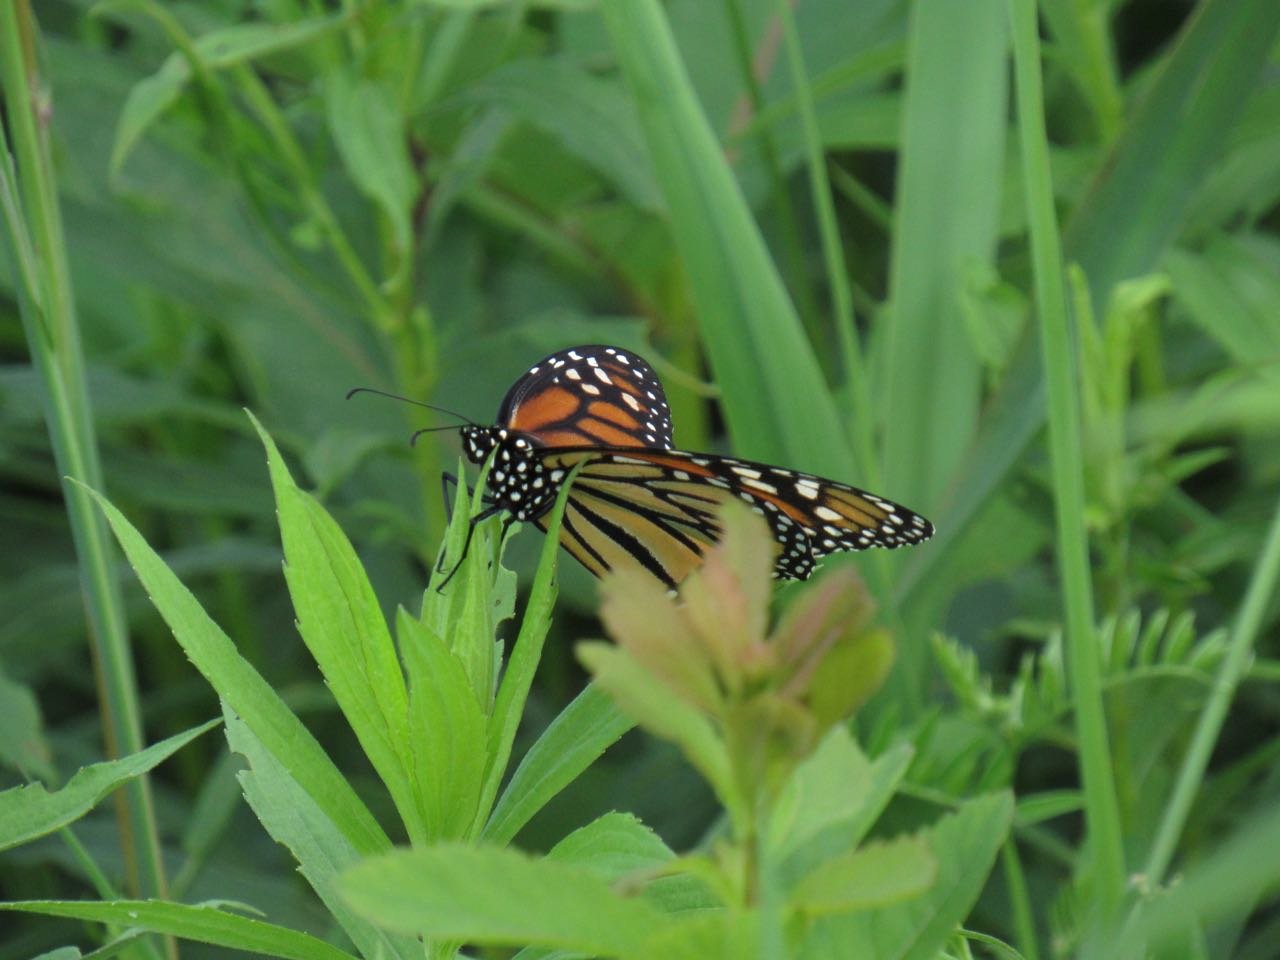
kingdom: Animalia
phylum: Arthropoda
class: Insecta
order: Lepidoptera
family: Nymphalidae
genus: Danaus
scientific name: Danaus plexippus
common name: Monarch
